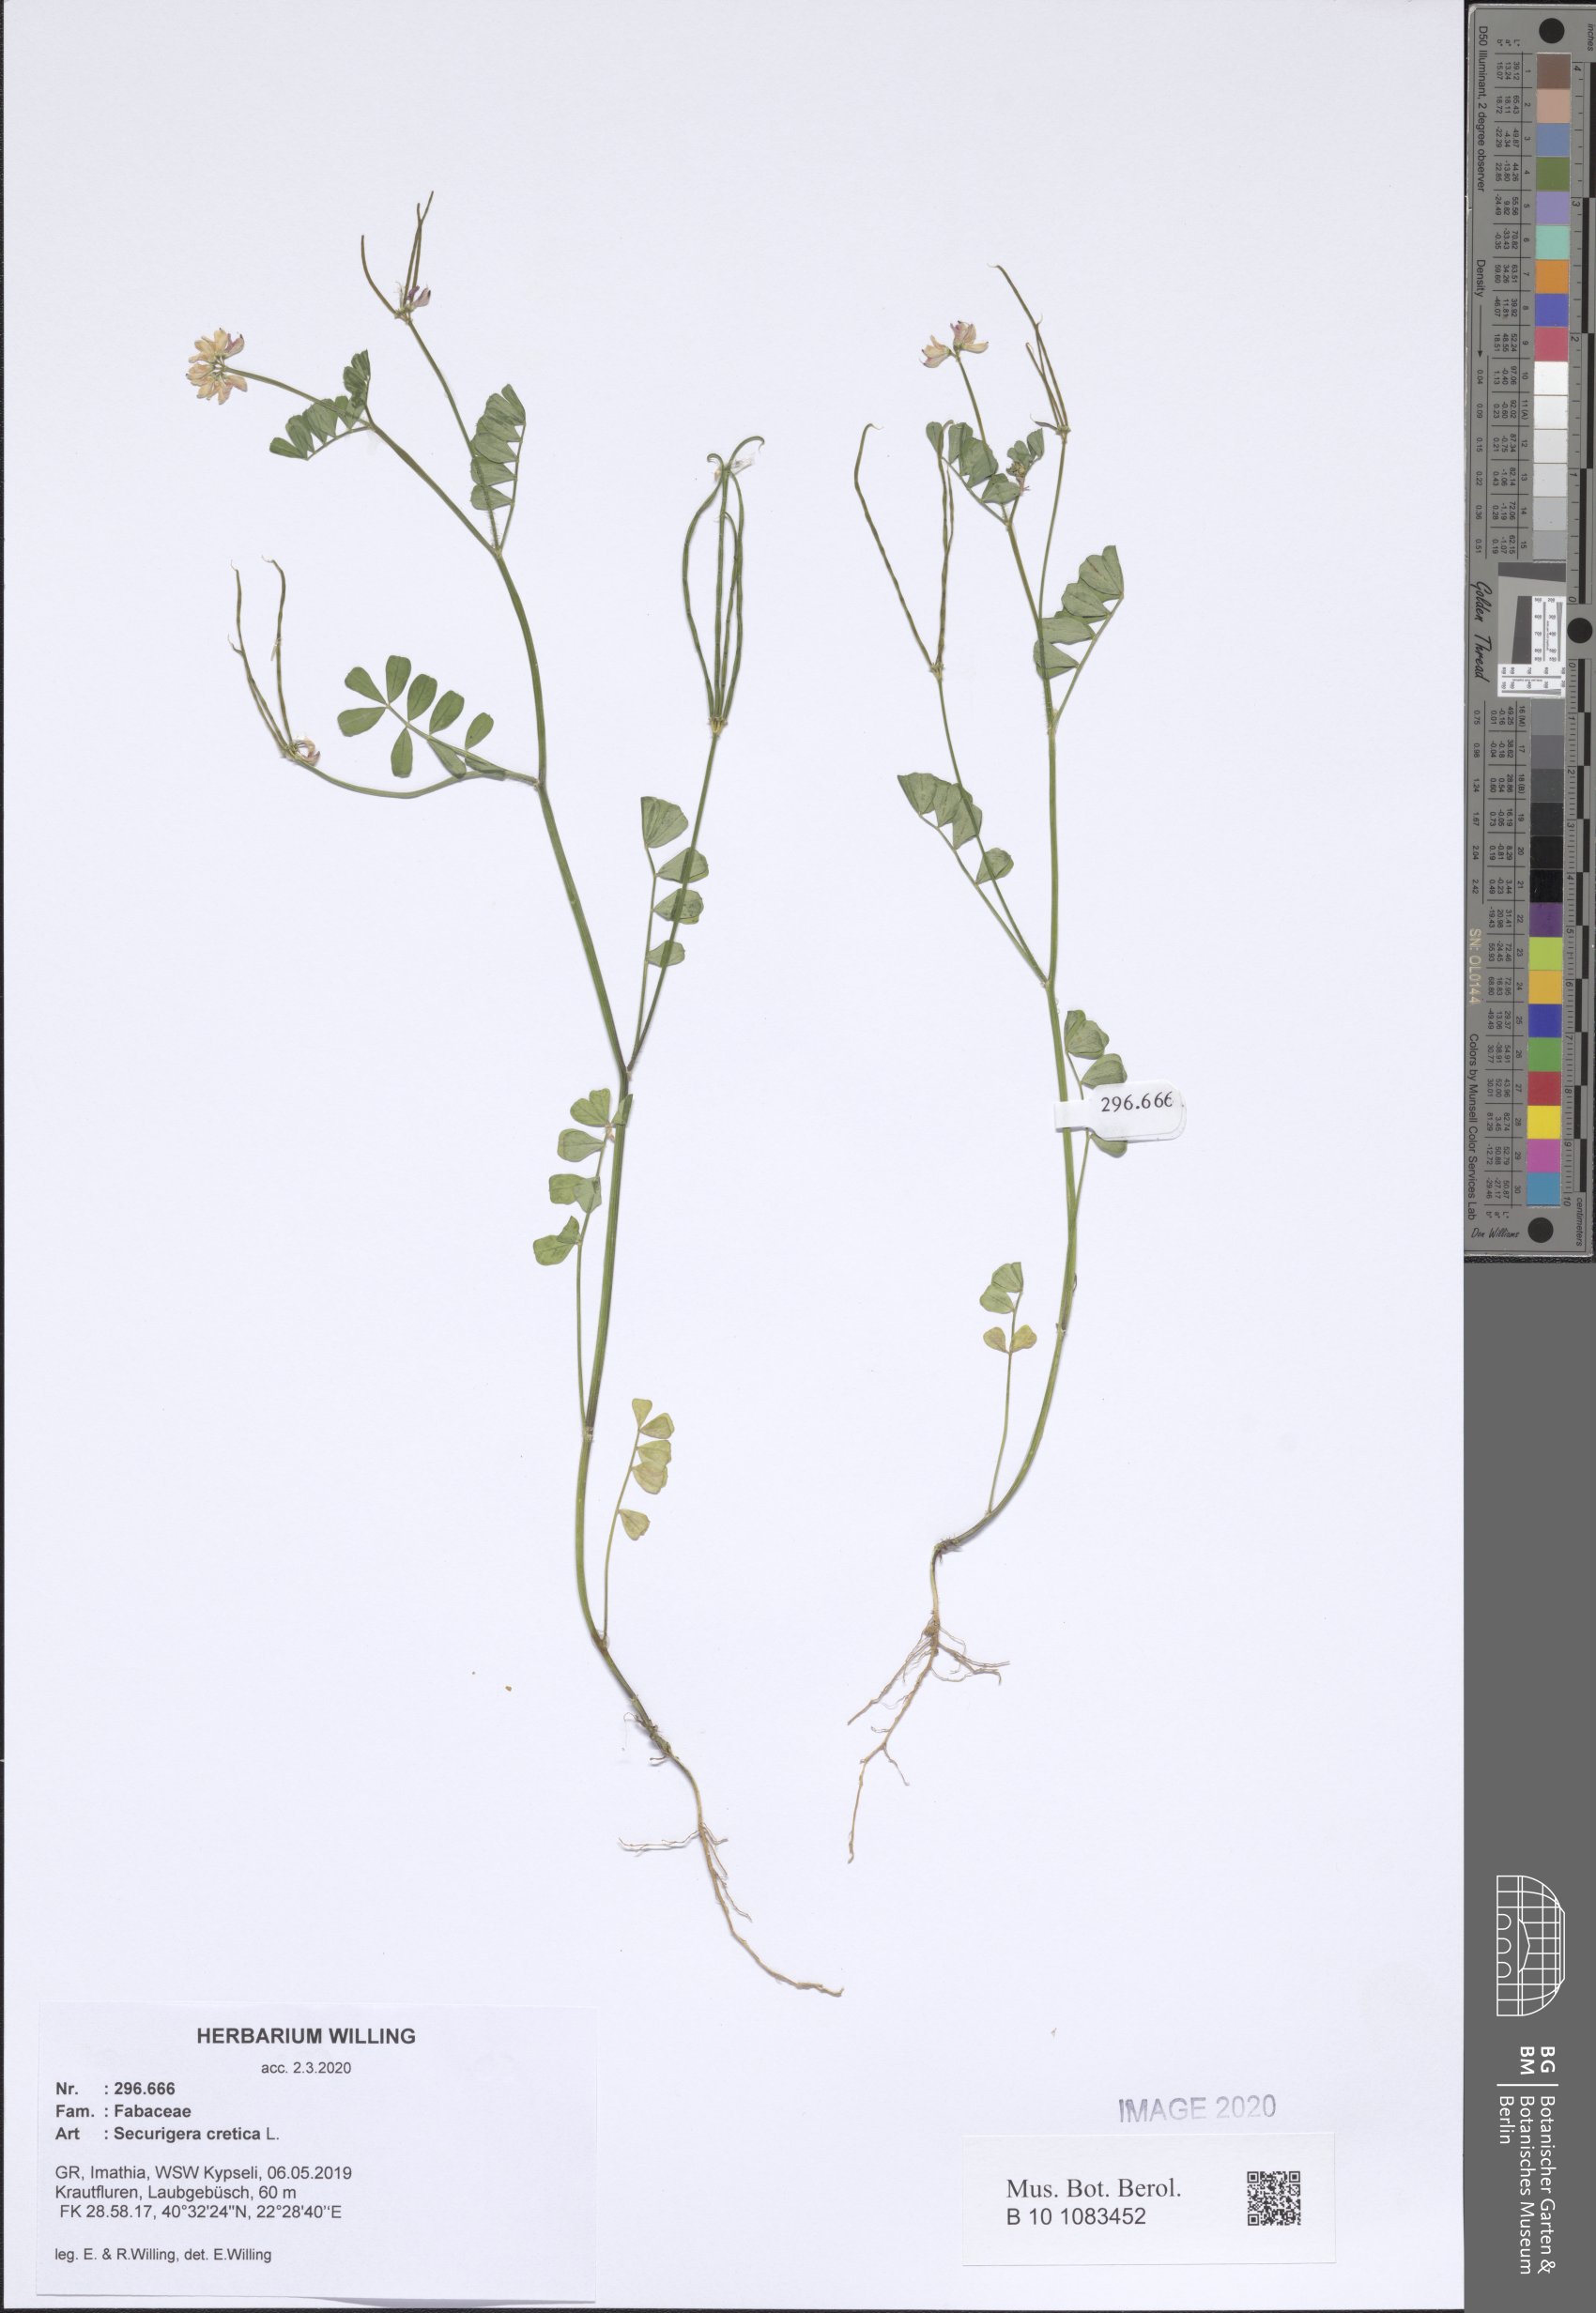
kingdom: Plantae
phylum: Tracheophyta
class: Magnoliopsida
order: Fabales
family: Fabaceae
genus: Coronilla
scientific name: Coronilla cretica
